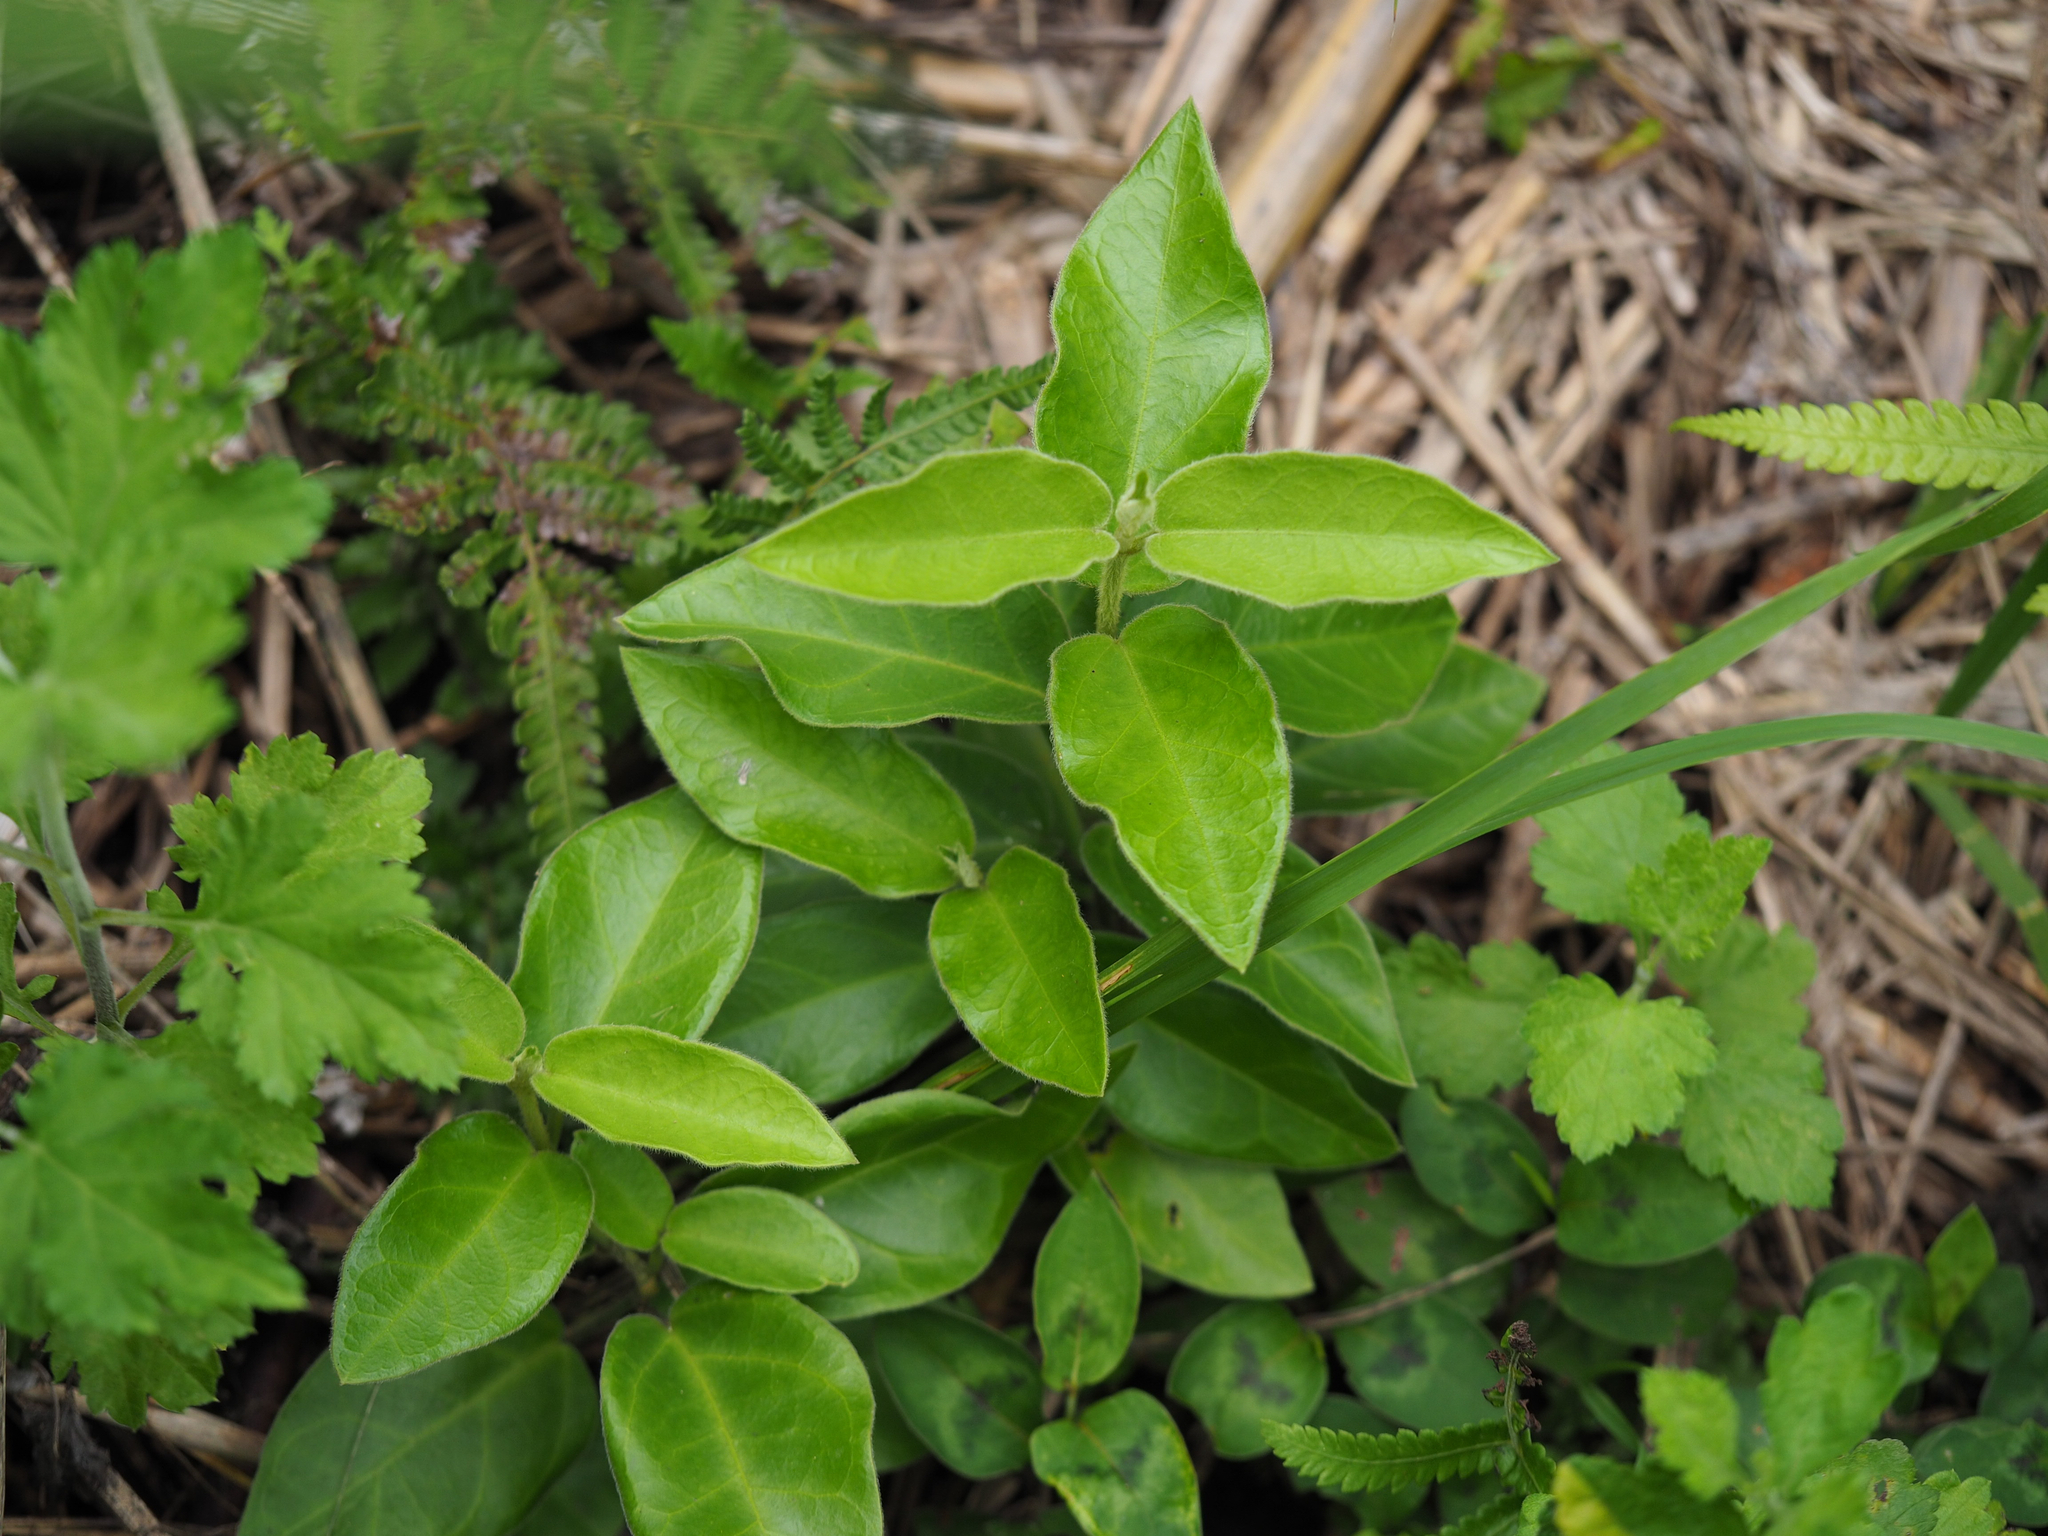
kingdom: Plantae
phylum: Tracheophyta
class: Magnoliopsida
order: Gentianales
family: Apocynaceae
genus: Vincetoxicum
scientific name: Vincetoxicum hirsutum
